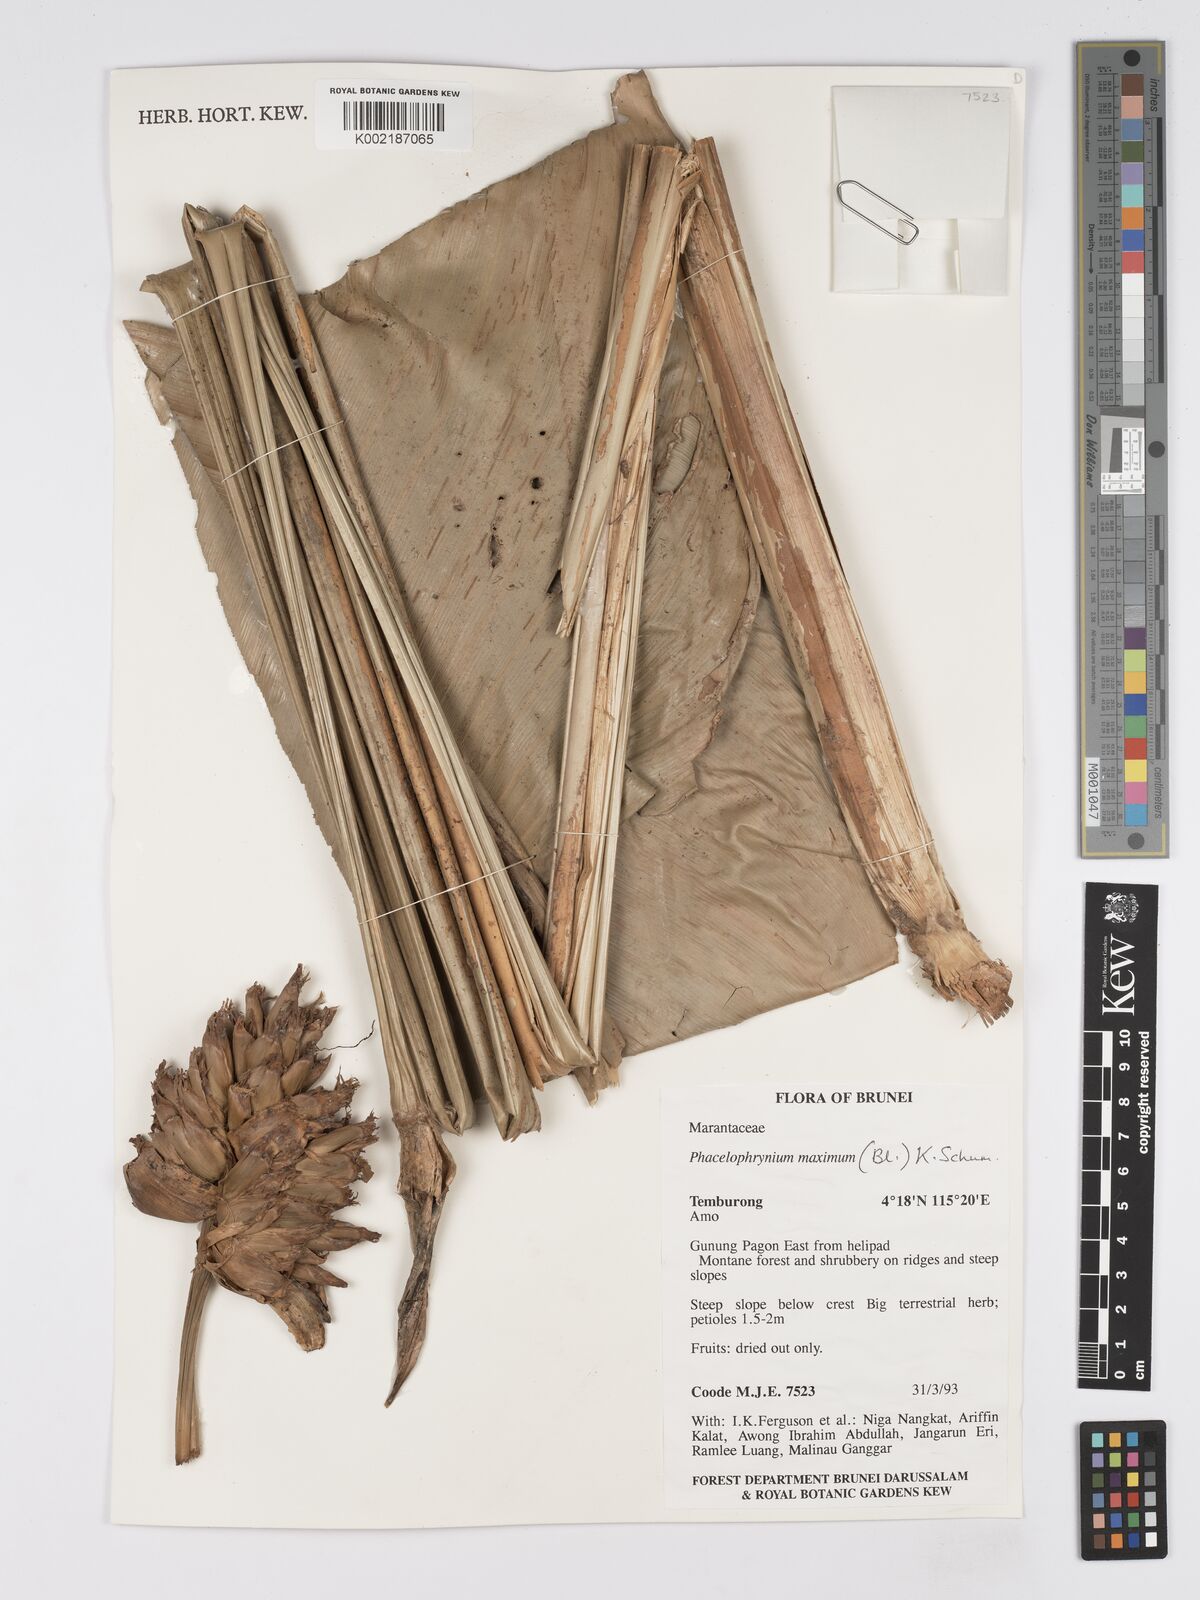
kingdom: Plantae
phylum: Tracheophyta
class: Liliopsida
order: Zingiberales
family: Marantaceae
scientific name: Marantaceae
